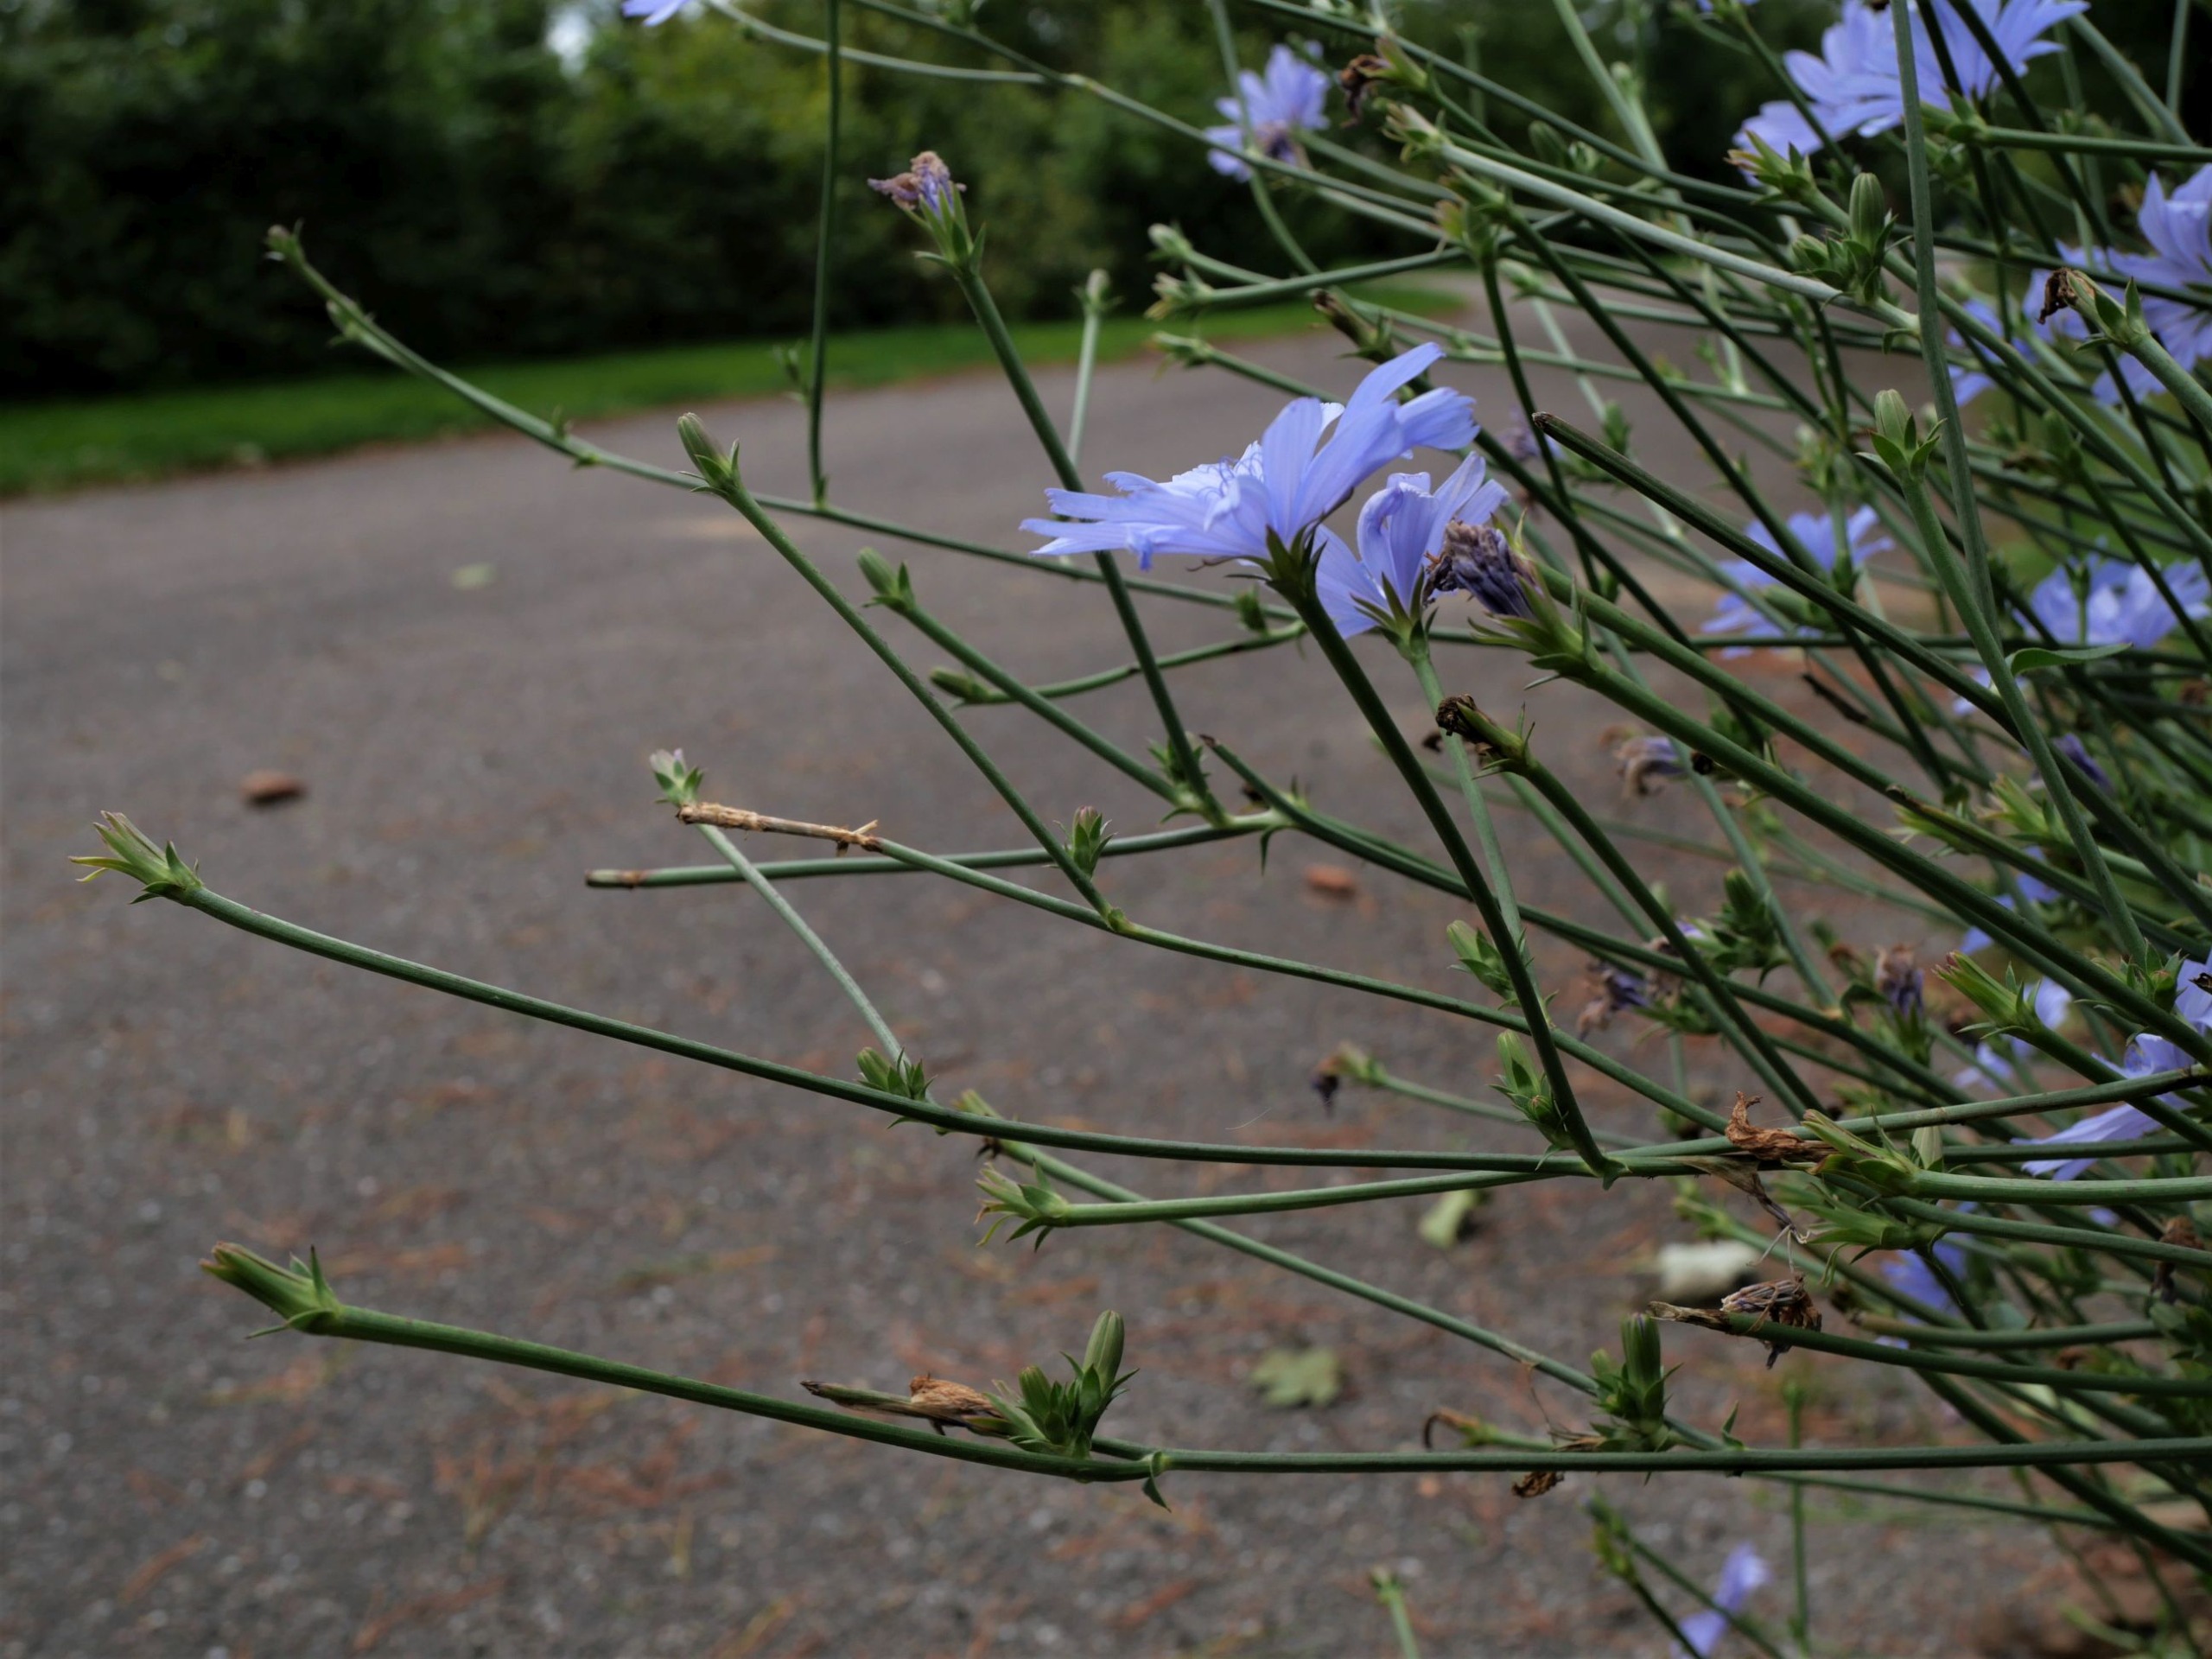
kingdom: Plantae
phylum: Tracheophyta
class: Magnoliopsida
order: Asterales
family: Asteraceae
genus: Cichorium
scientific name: Cichorium intybus
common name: Cikorie
